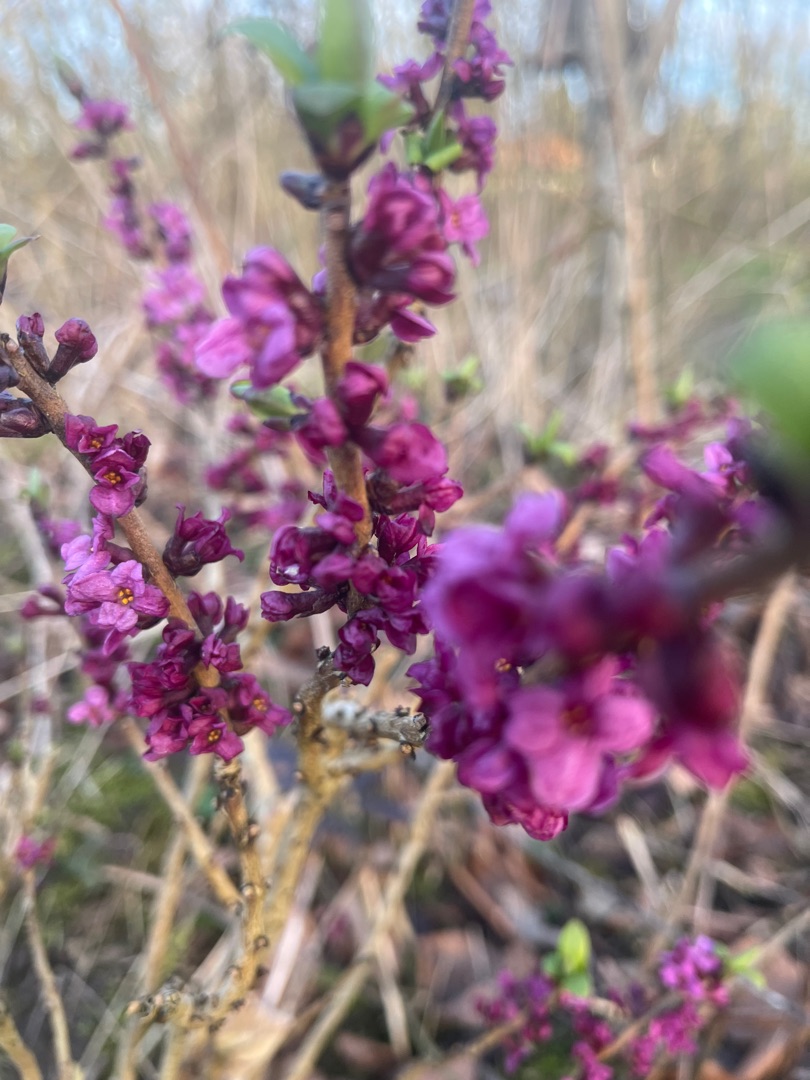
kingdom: Plantae
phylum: Tracheophyta
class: Magnoliopsida
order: Malvales
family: Thymelaeaceae
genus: Daphne
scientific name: Daphne mezereum
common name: Pebertræ
